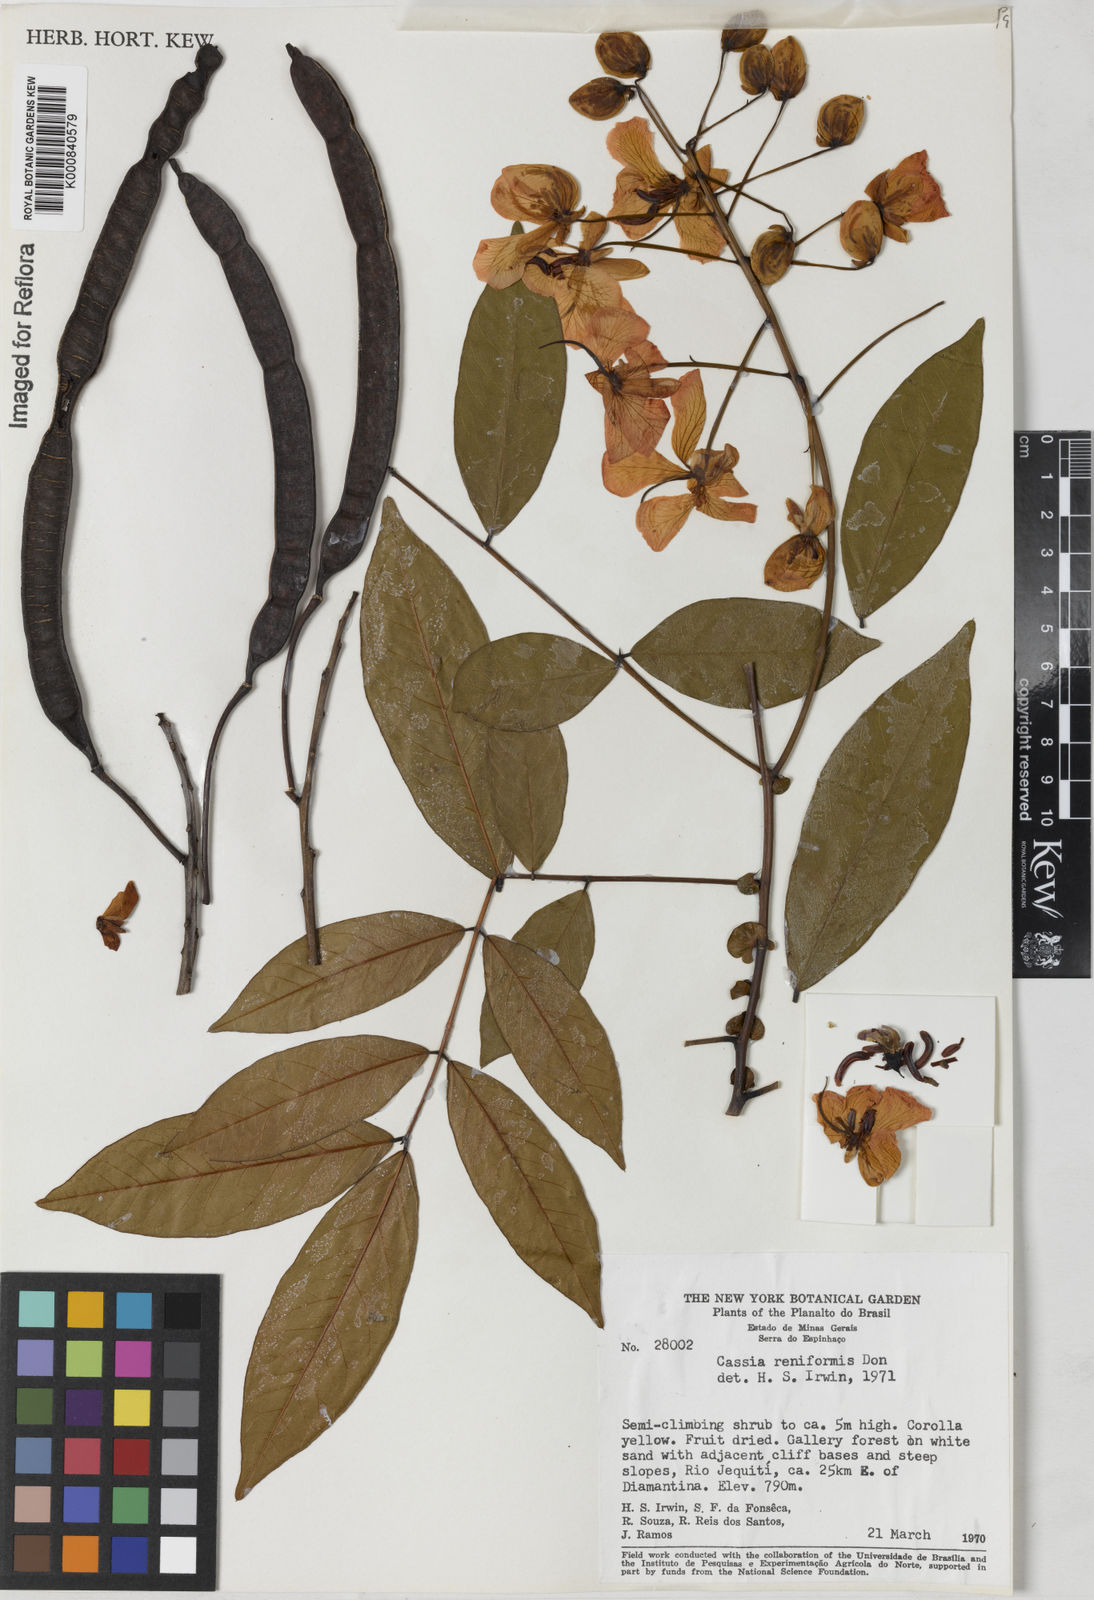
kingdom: Plantae
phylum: Tracheophyta
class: Magnoliopsida
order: Fabales
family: Fabaceae
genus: Senna
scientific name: Senna reniformis
